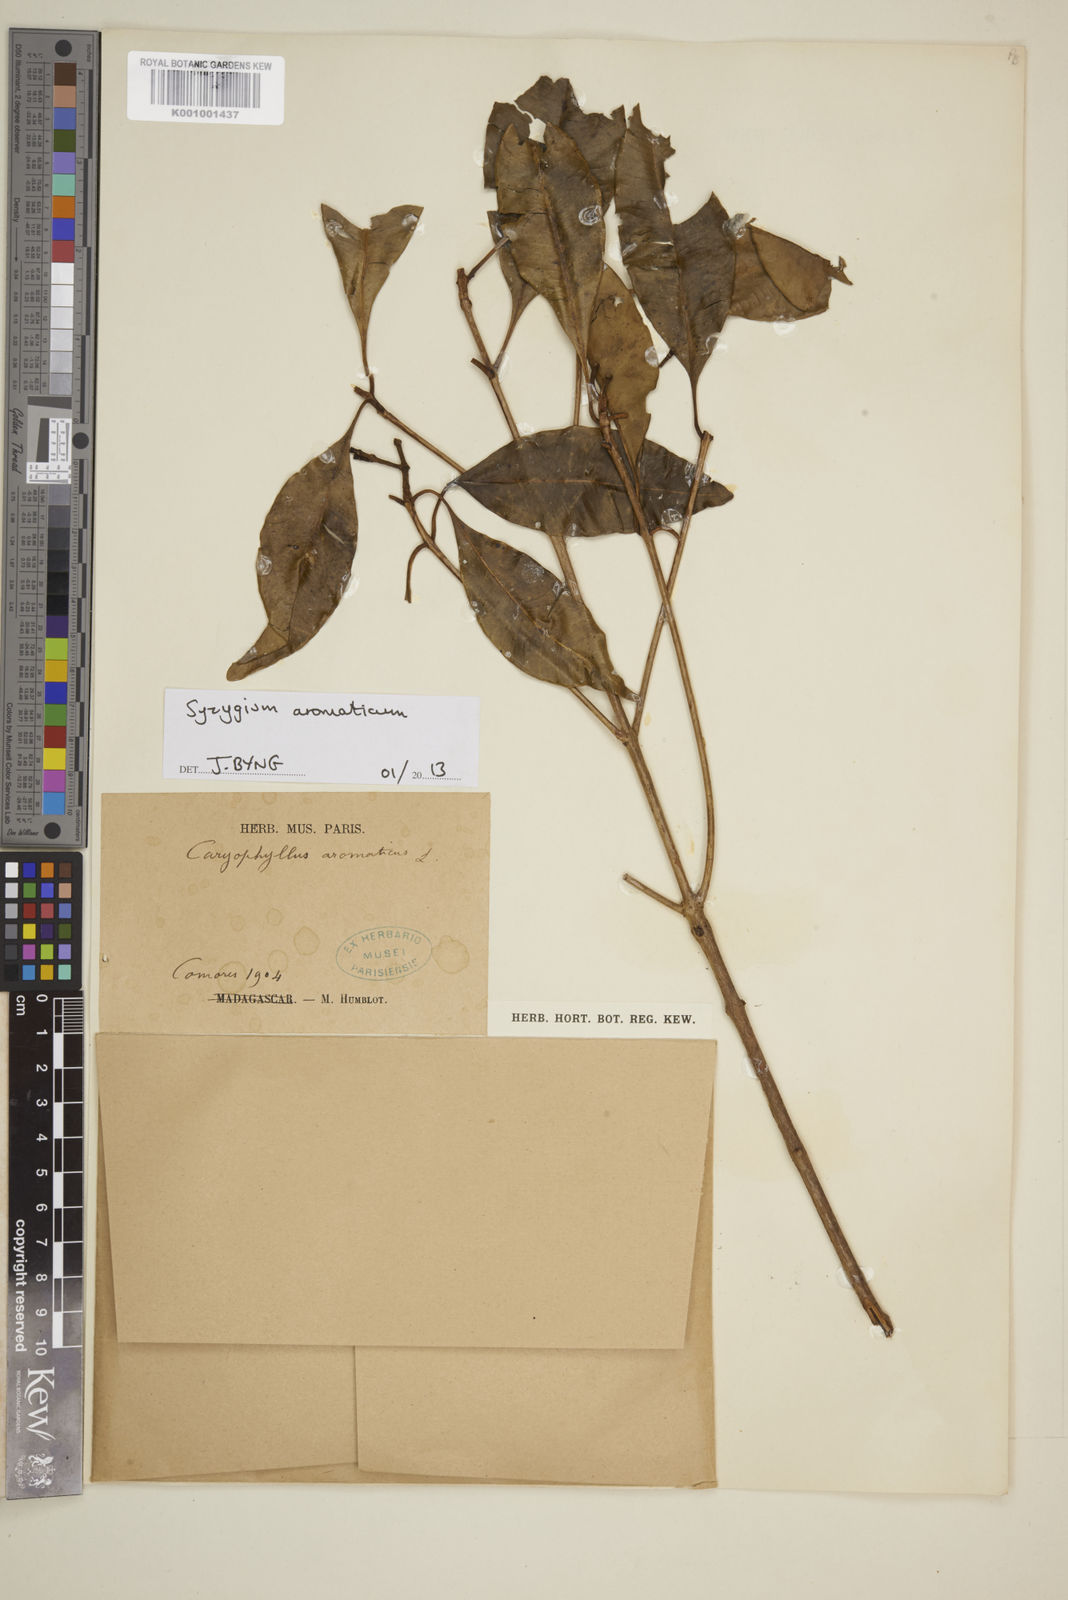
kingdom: Plantae
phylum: Tracheophyta
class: Magnoliopsida
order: Myrtales
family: Myrtaceae
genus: Syzygium
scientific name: Syzygium jambos
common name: Malabar plum
